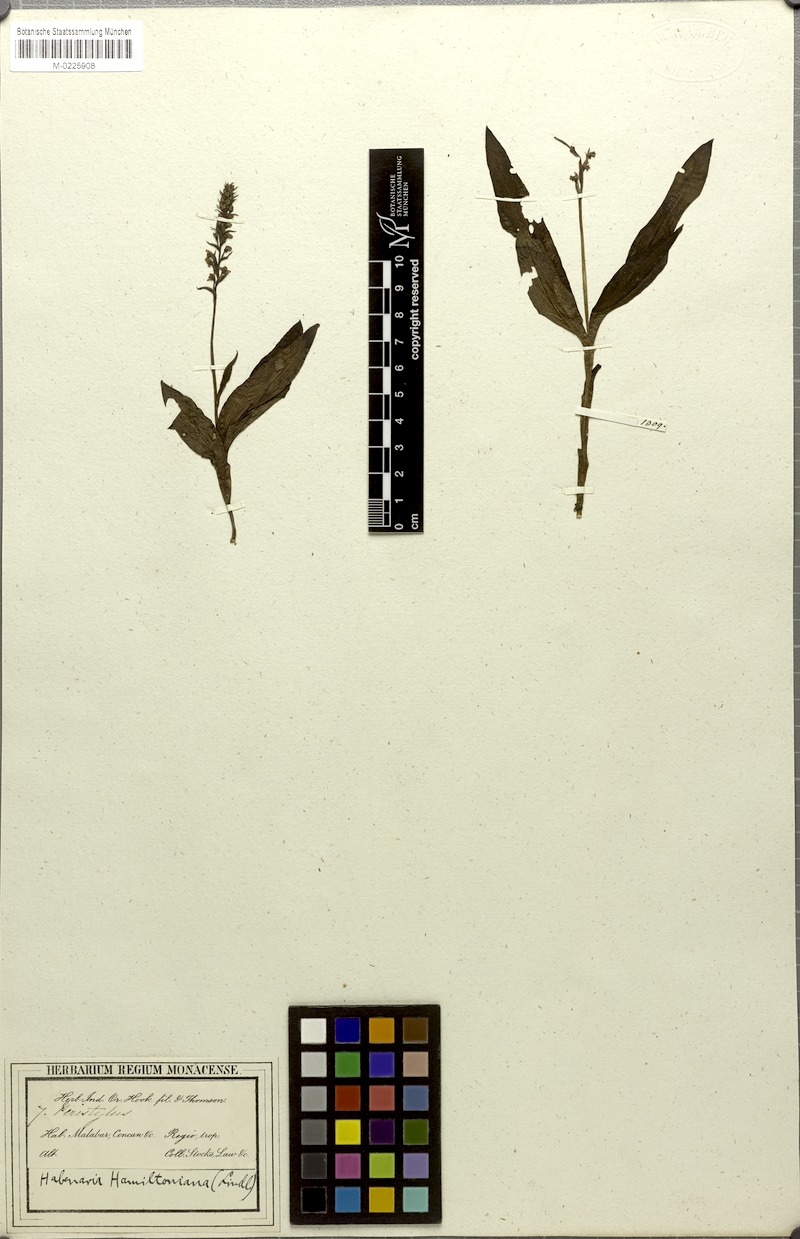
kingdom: Plantae
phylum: Tracheophyta
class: Liliopsida
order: Asparagales
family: Orchidaceae
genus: Peristylus
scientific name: Peristylus hamiltonianus
